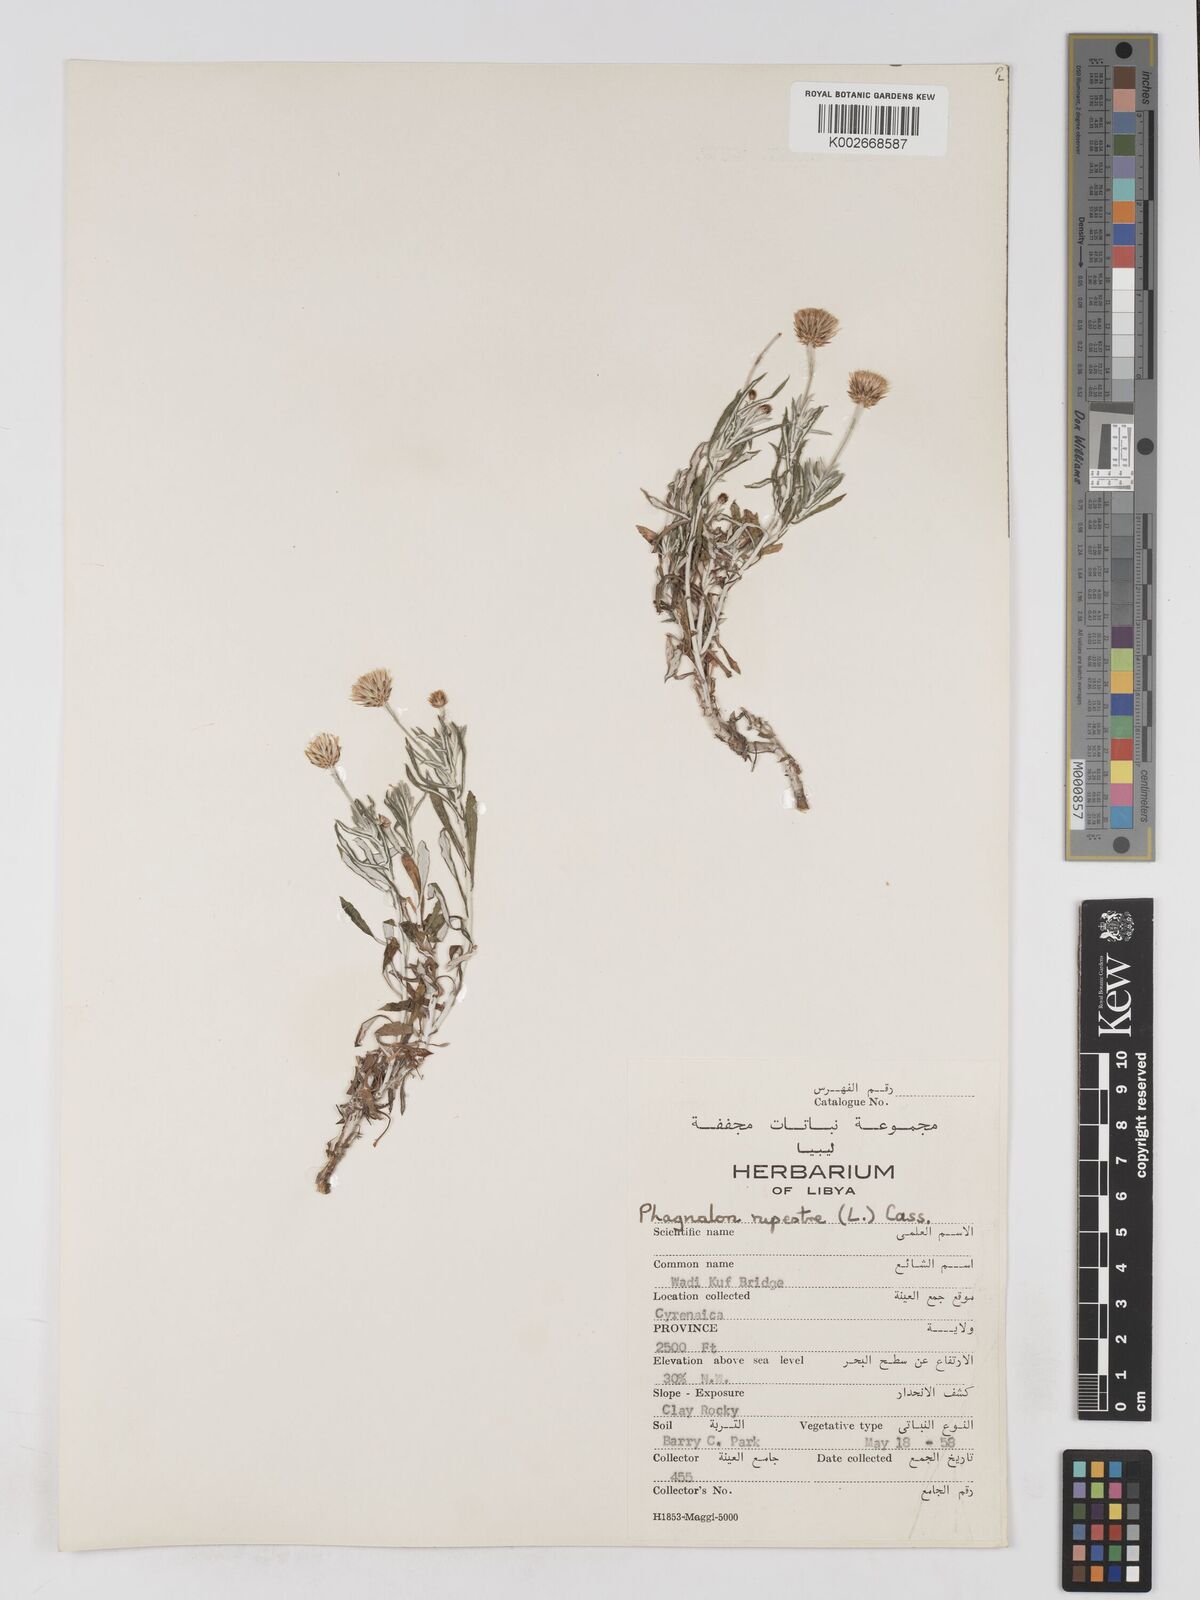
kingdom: Plantae
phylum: Tracheophyta
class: Magnoliopsida
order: Asterales
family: Asteraceae
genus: Phagnalon
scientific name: Phagnalon rupestre
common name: Rock phagnalon
